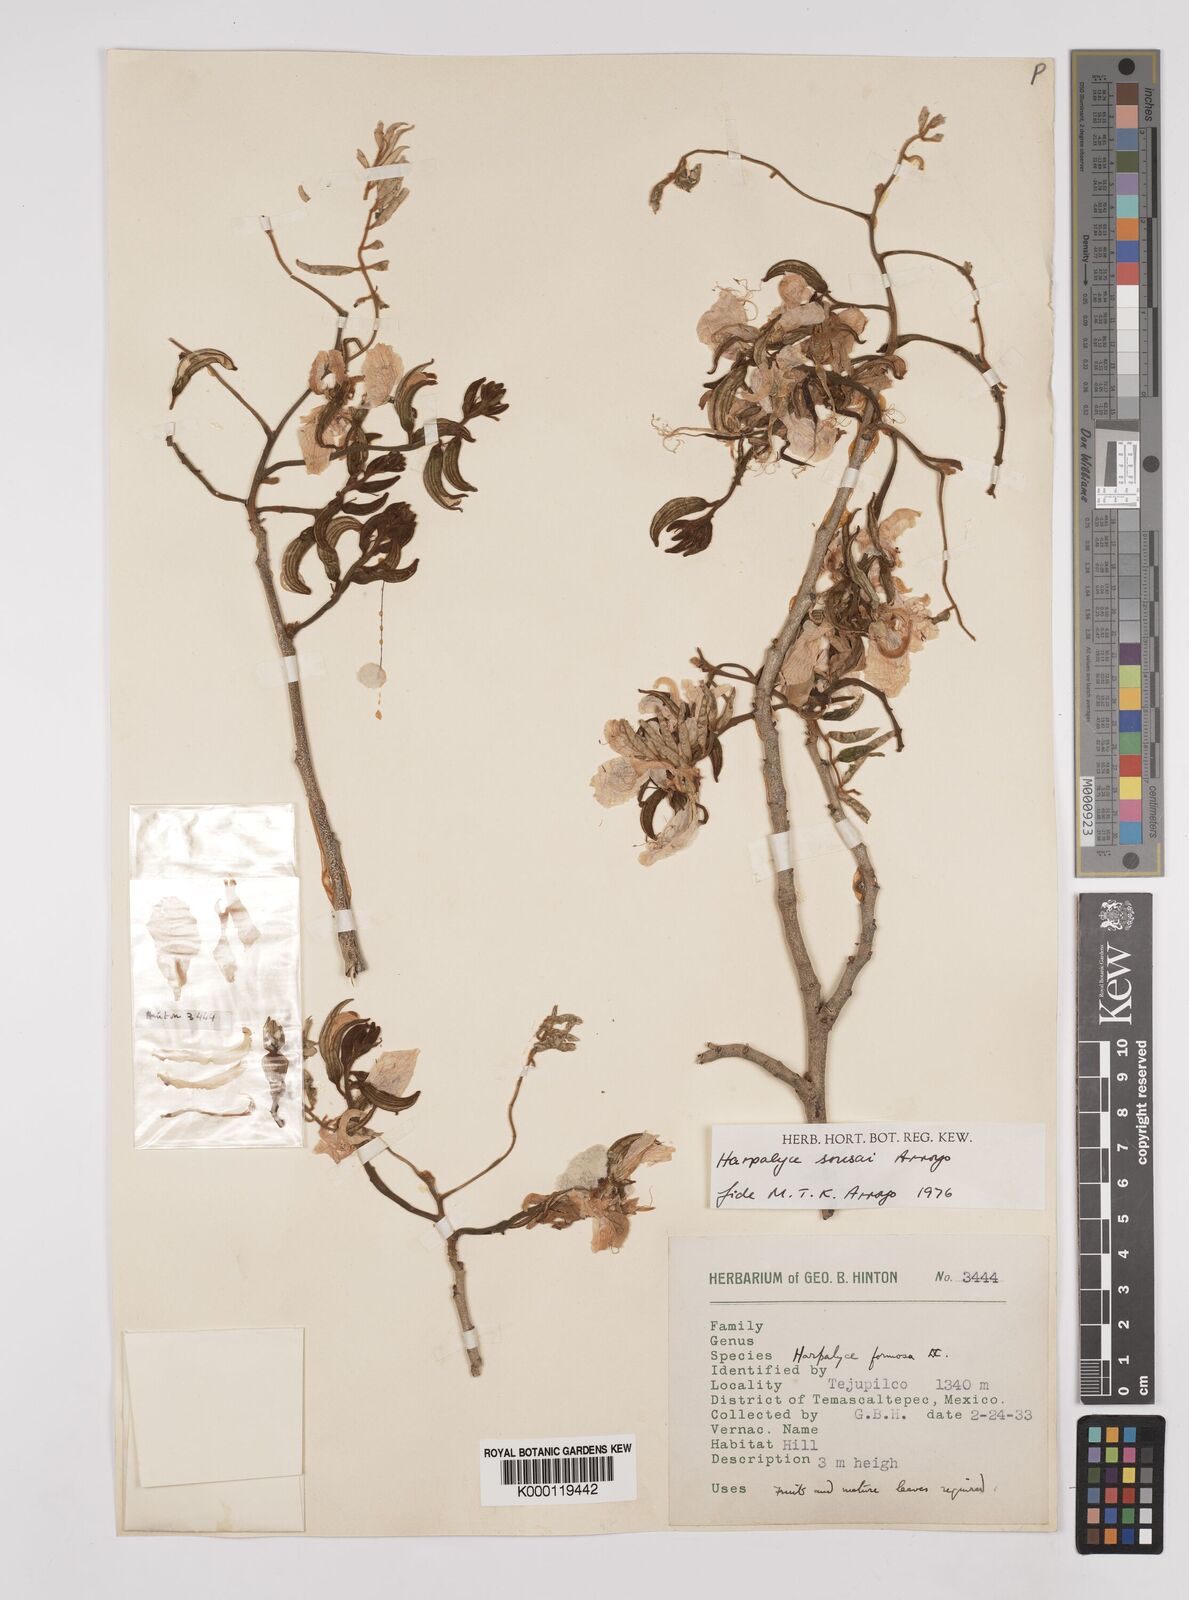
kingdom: Plantae
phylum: Tracheophyta
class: Magnoliopsida
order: Fabales
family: Fabaceae
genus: Harpalyce
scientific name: Harpalyce
